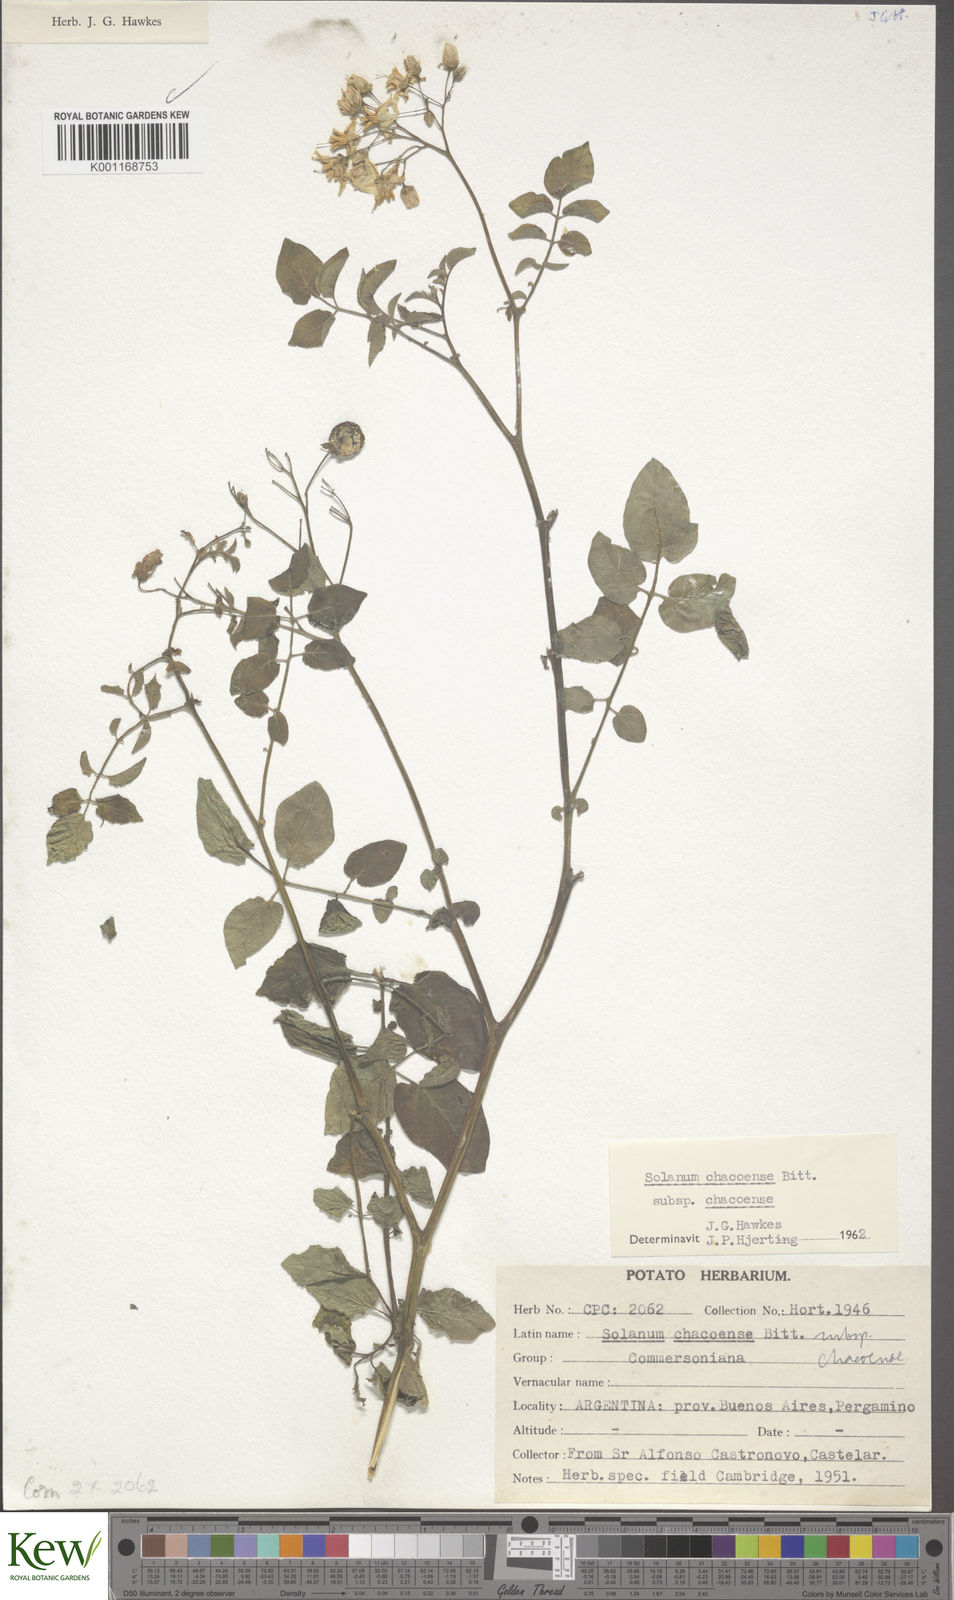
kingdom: Plantae
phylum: Tracheophyta
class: Magnoliopsida
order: Solanales
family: Solanaceae
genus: Solanum
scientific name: Solanum chacoense
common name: Chaco potato
